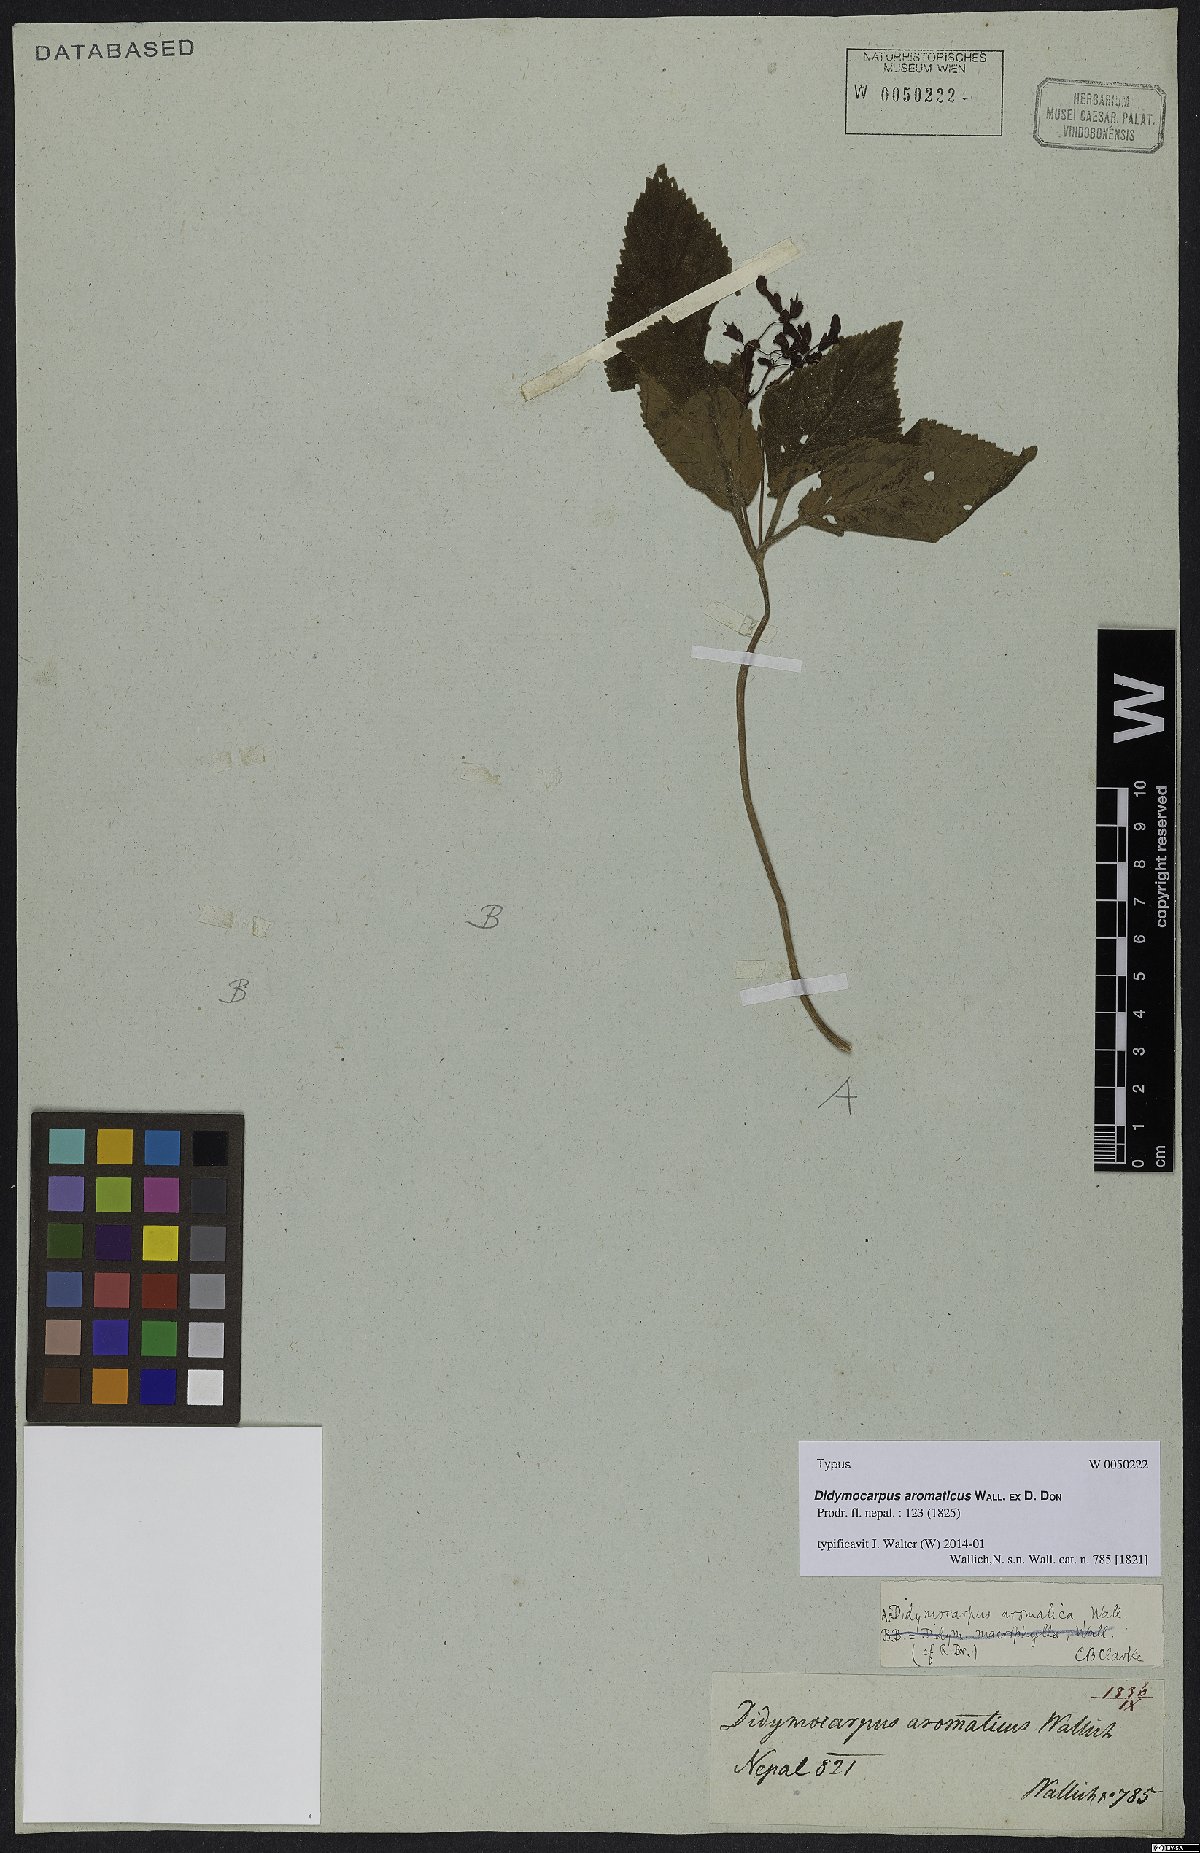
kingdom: Plantae
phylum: Tracheophyta
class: Magnoliopsida
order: Lamiales
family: Gesneriaceae
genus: Didymocarpus
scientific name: Didymocarpus aromaticus
